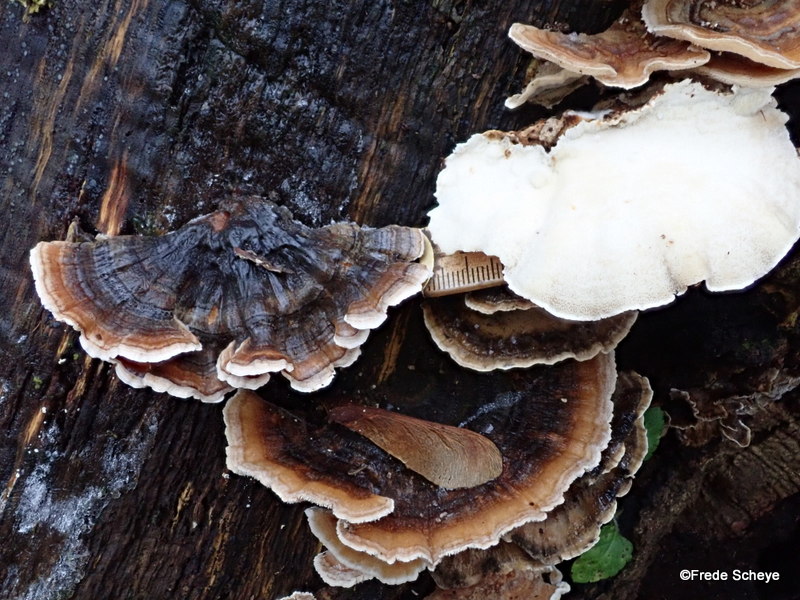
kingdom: Fungi
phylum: Basidiomycota
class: Agaricomycetes
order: Polyporales
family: Polyporaceae
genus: Trametes
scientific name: Trametes versicolor
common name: broget læderporesvamp
